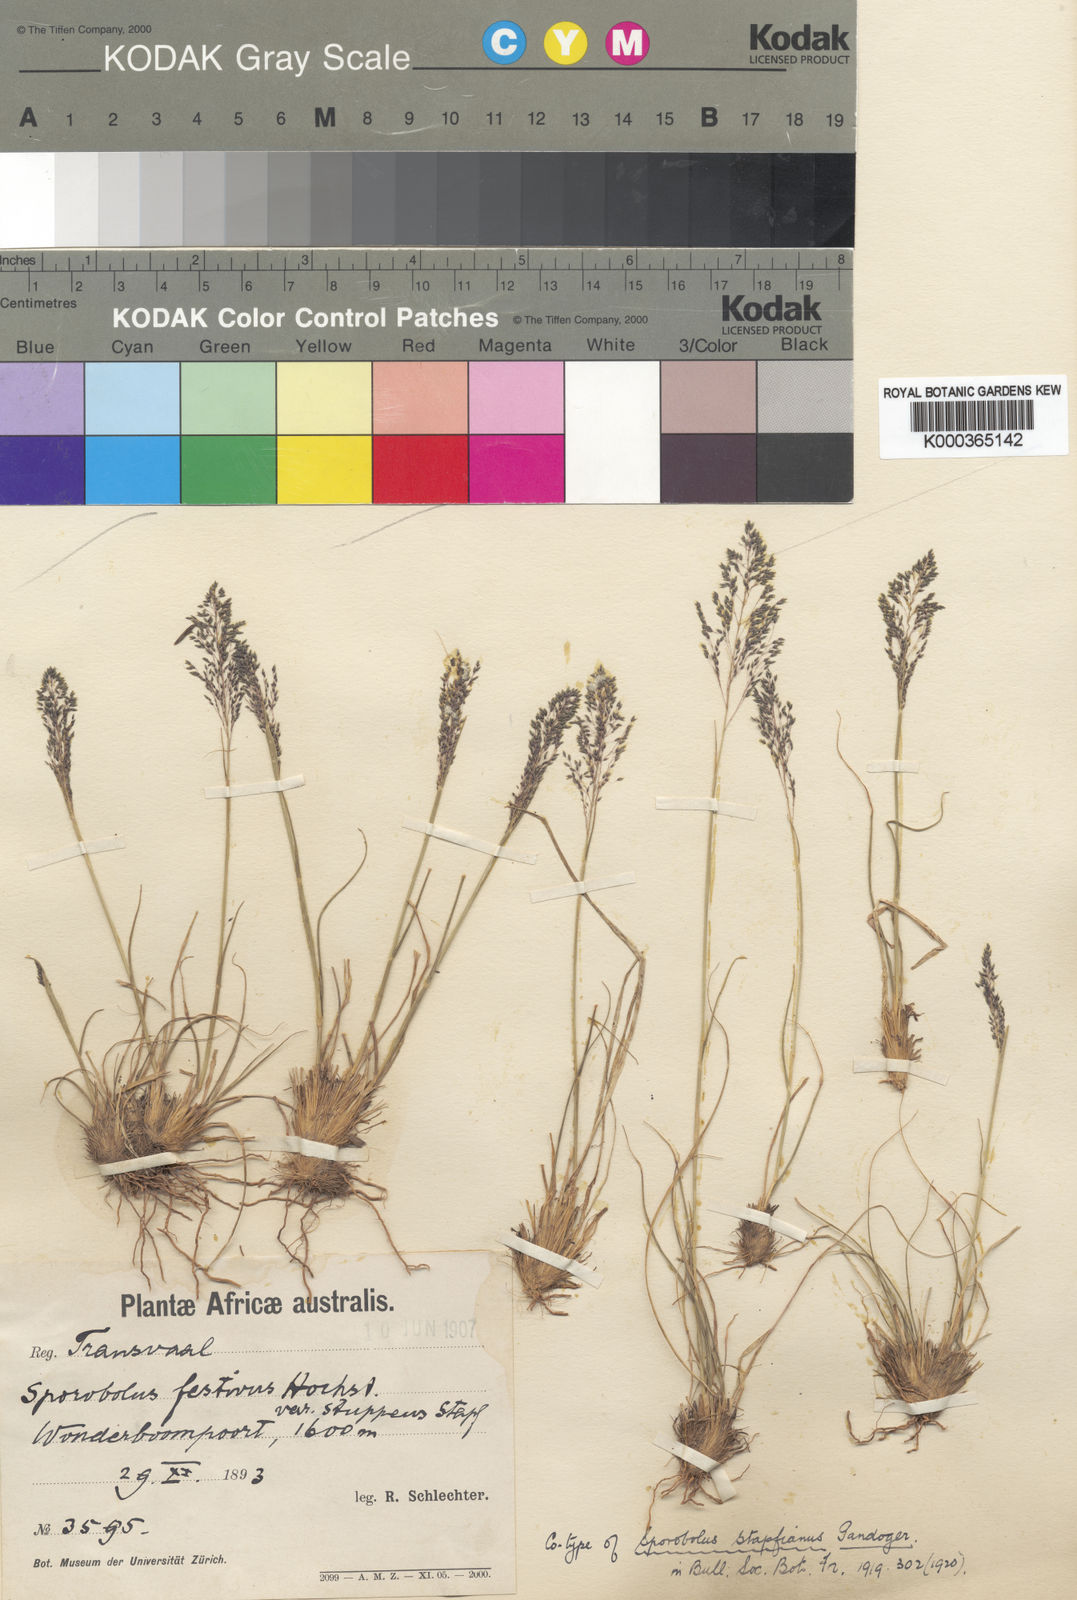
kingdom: Plantae
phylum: Tracheophyta
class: Liliopsida
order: Poales
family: Poaceae
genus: Sporobolus
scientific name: Sporobolus stapfianus
